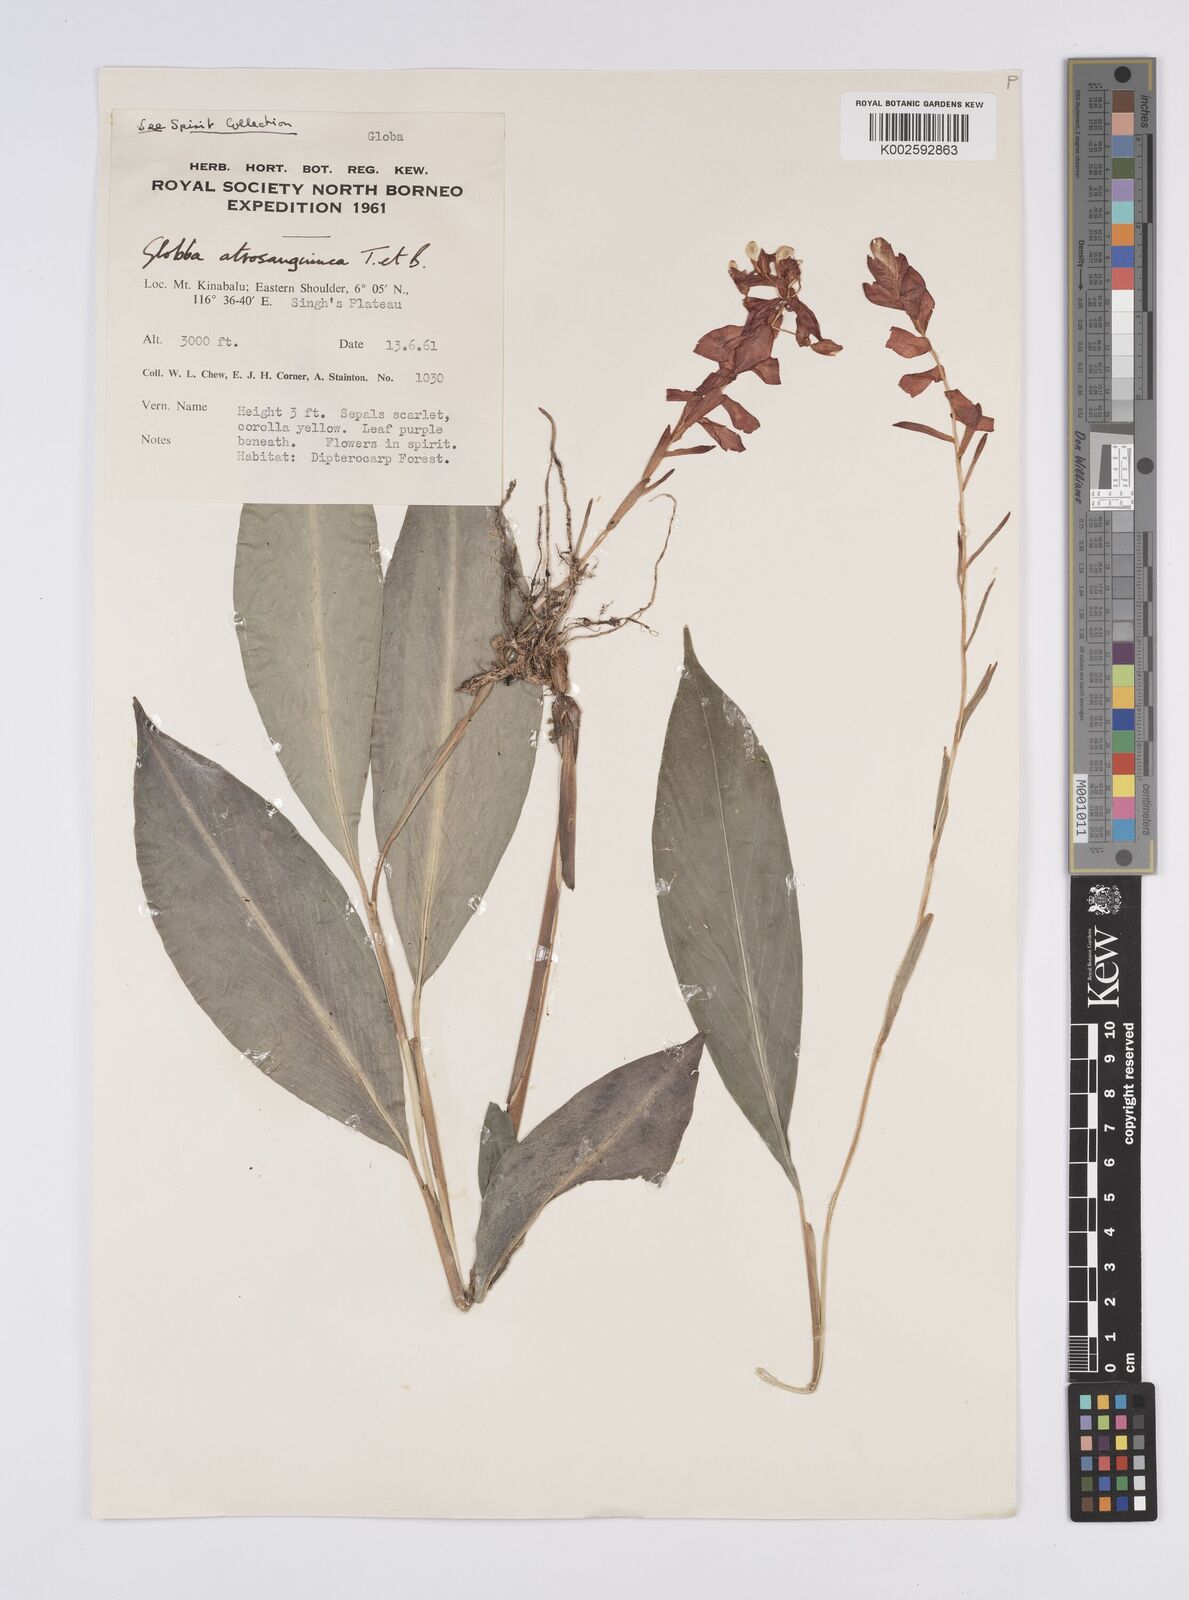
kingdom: Plantae
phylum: Tracheophyta
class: Liliopsida
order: Zingiberales
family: Zingiberaceae
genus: Globba
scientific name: Globba atrosanguinea
